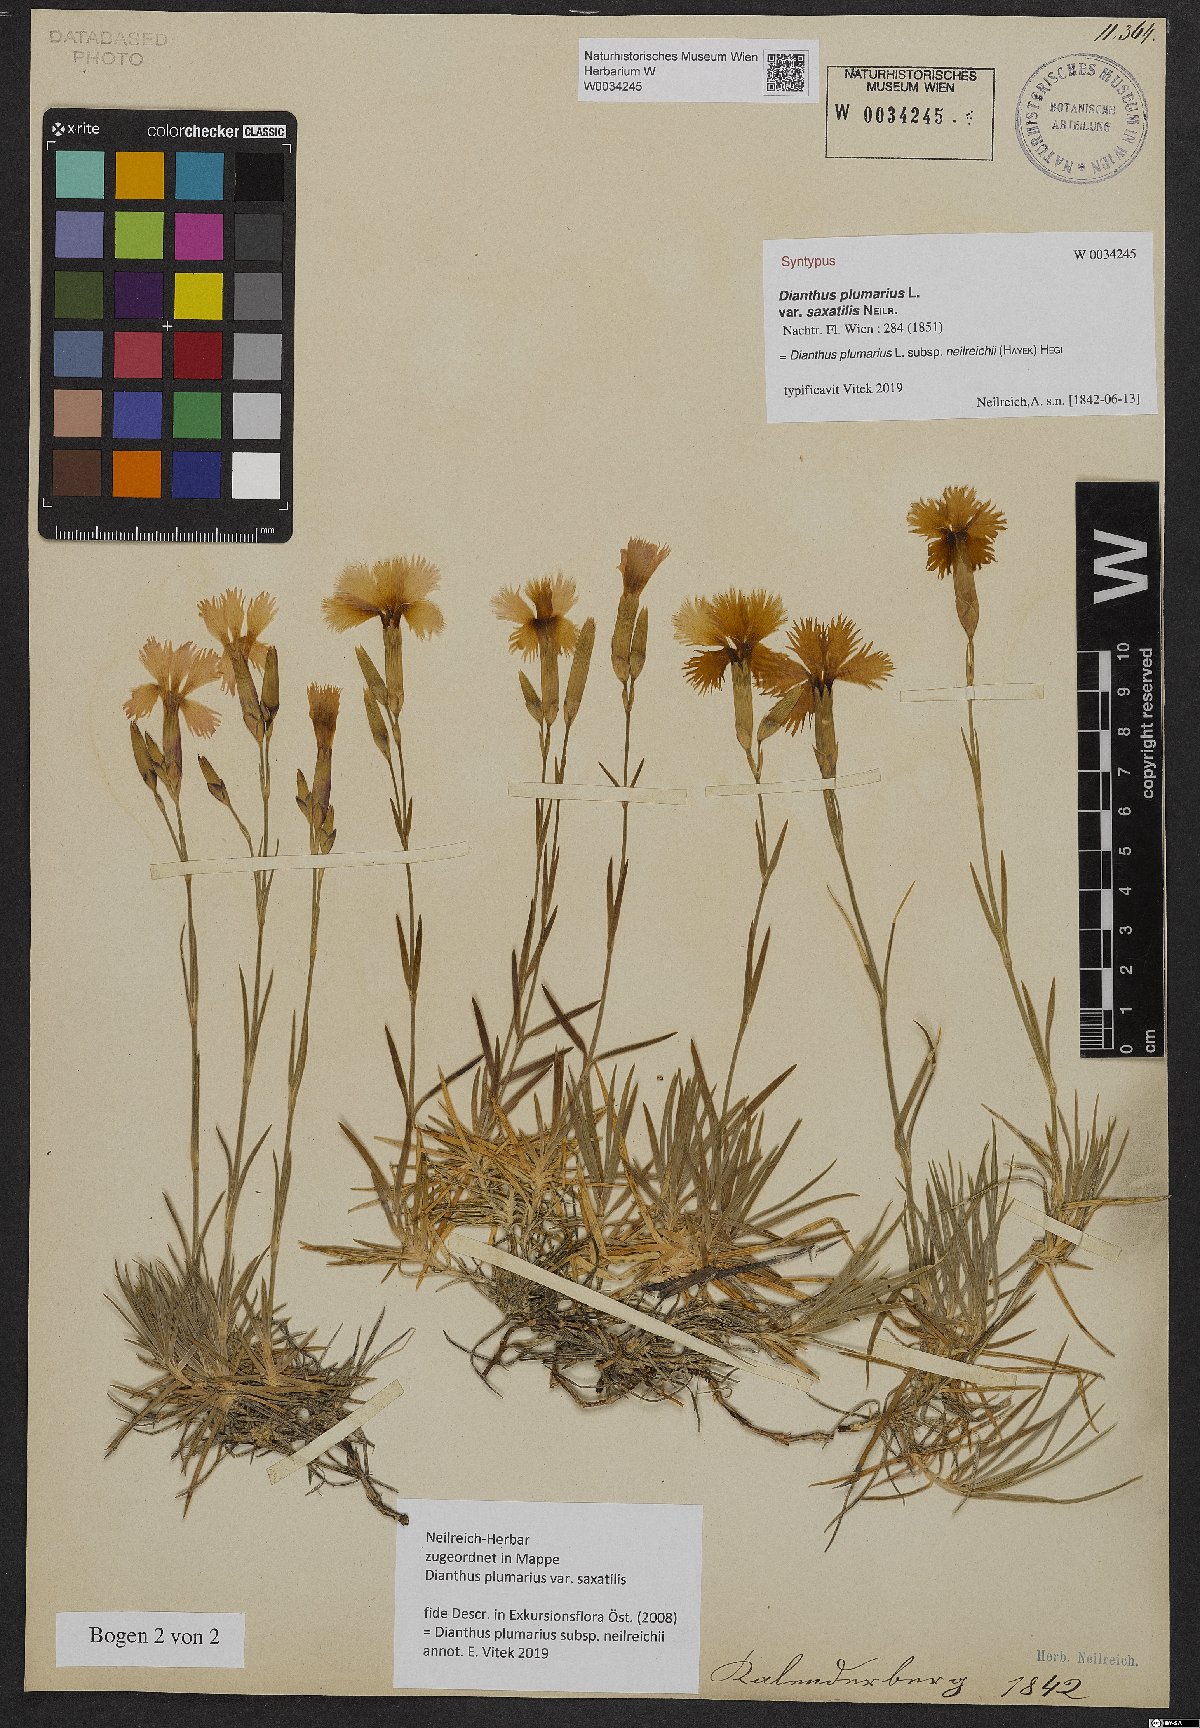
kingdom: Plantae
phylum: Tracheophyta
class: Magnoliopsida
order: Caryophyllales
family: Caryophyllaceae
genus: Dianthus
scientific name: Dianthus plumarius
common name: Pink
